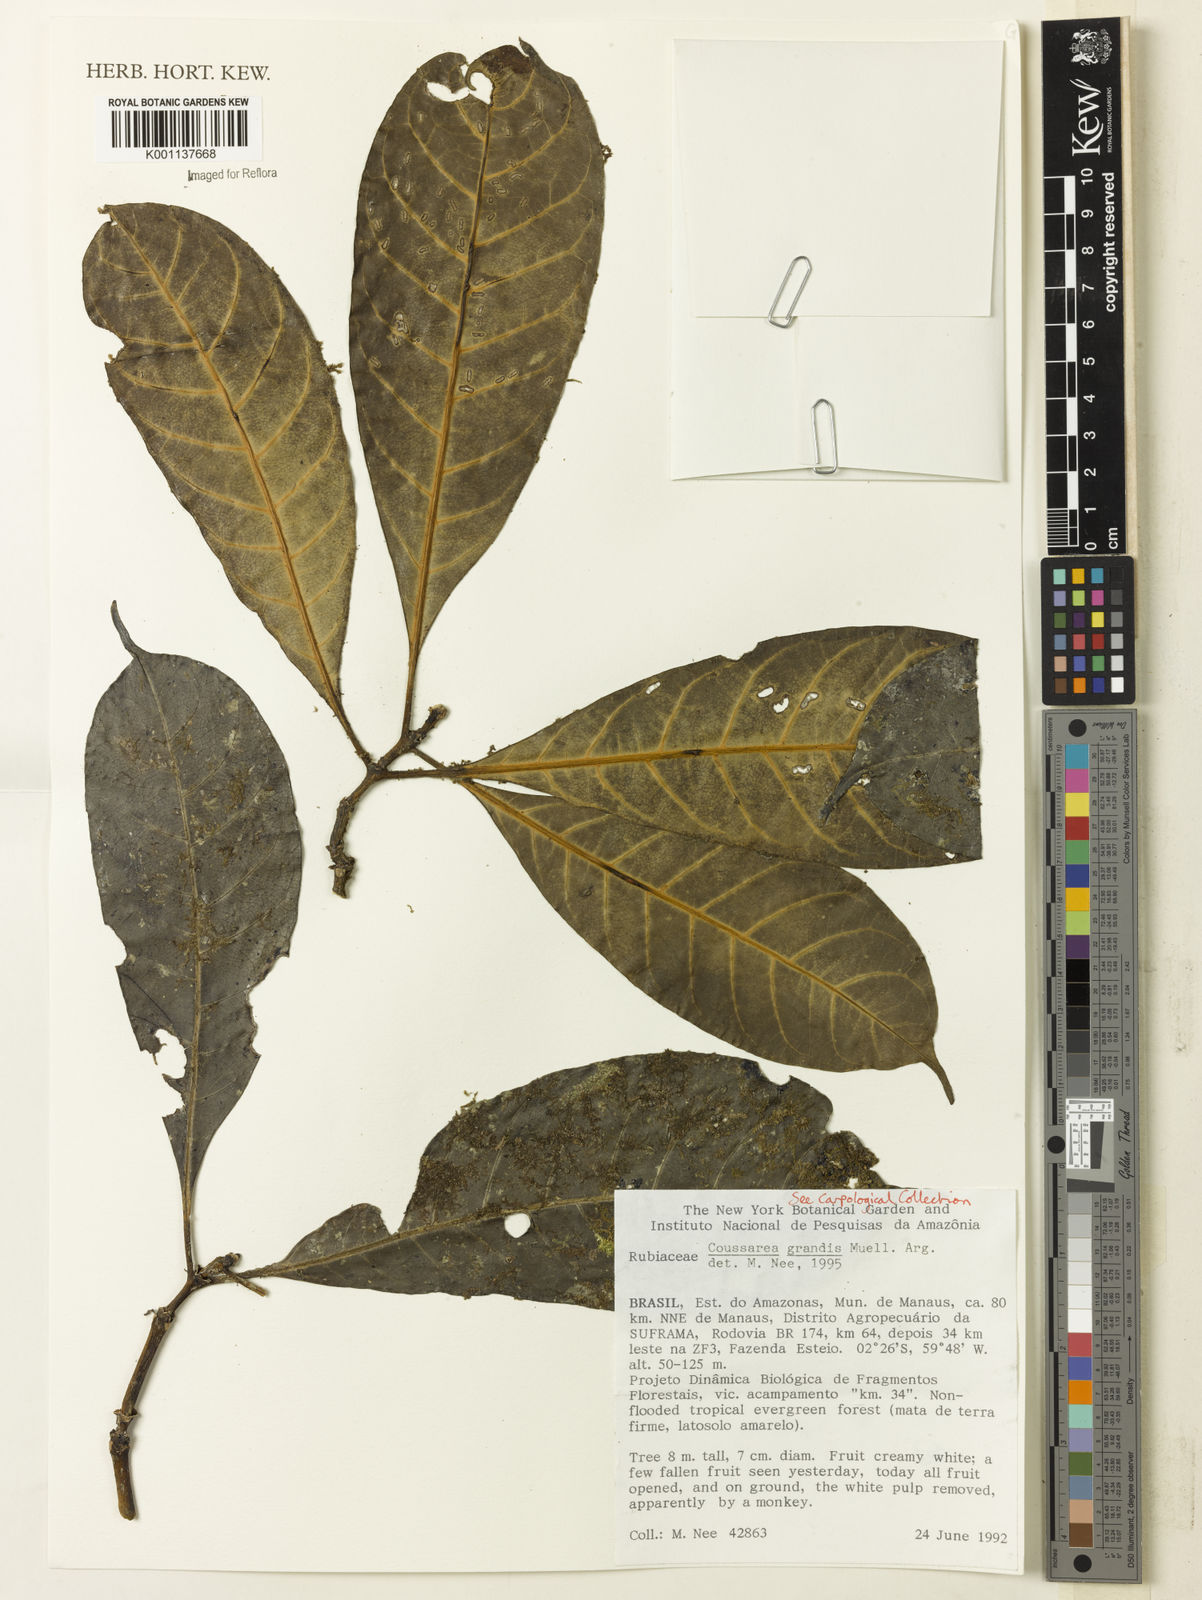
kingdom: Plantae
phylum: Tracheophyta
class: Magnoliopsida
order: Gentianales
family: Rubiaceae
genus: Coussarea
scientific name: Coussarea
